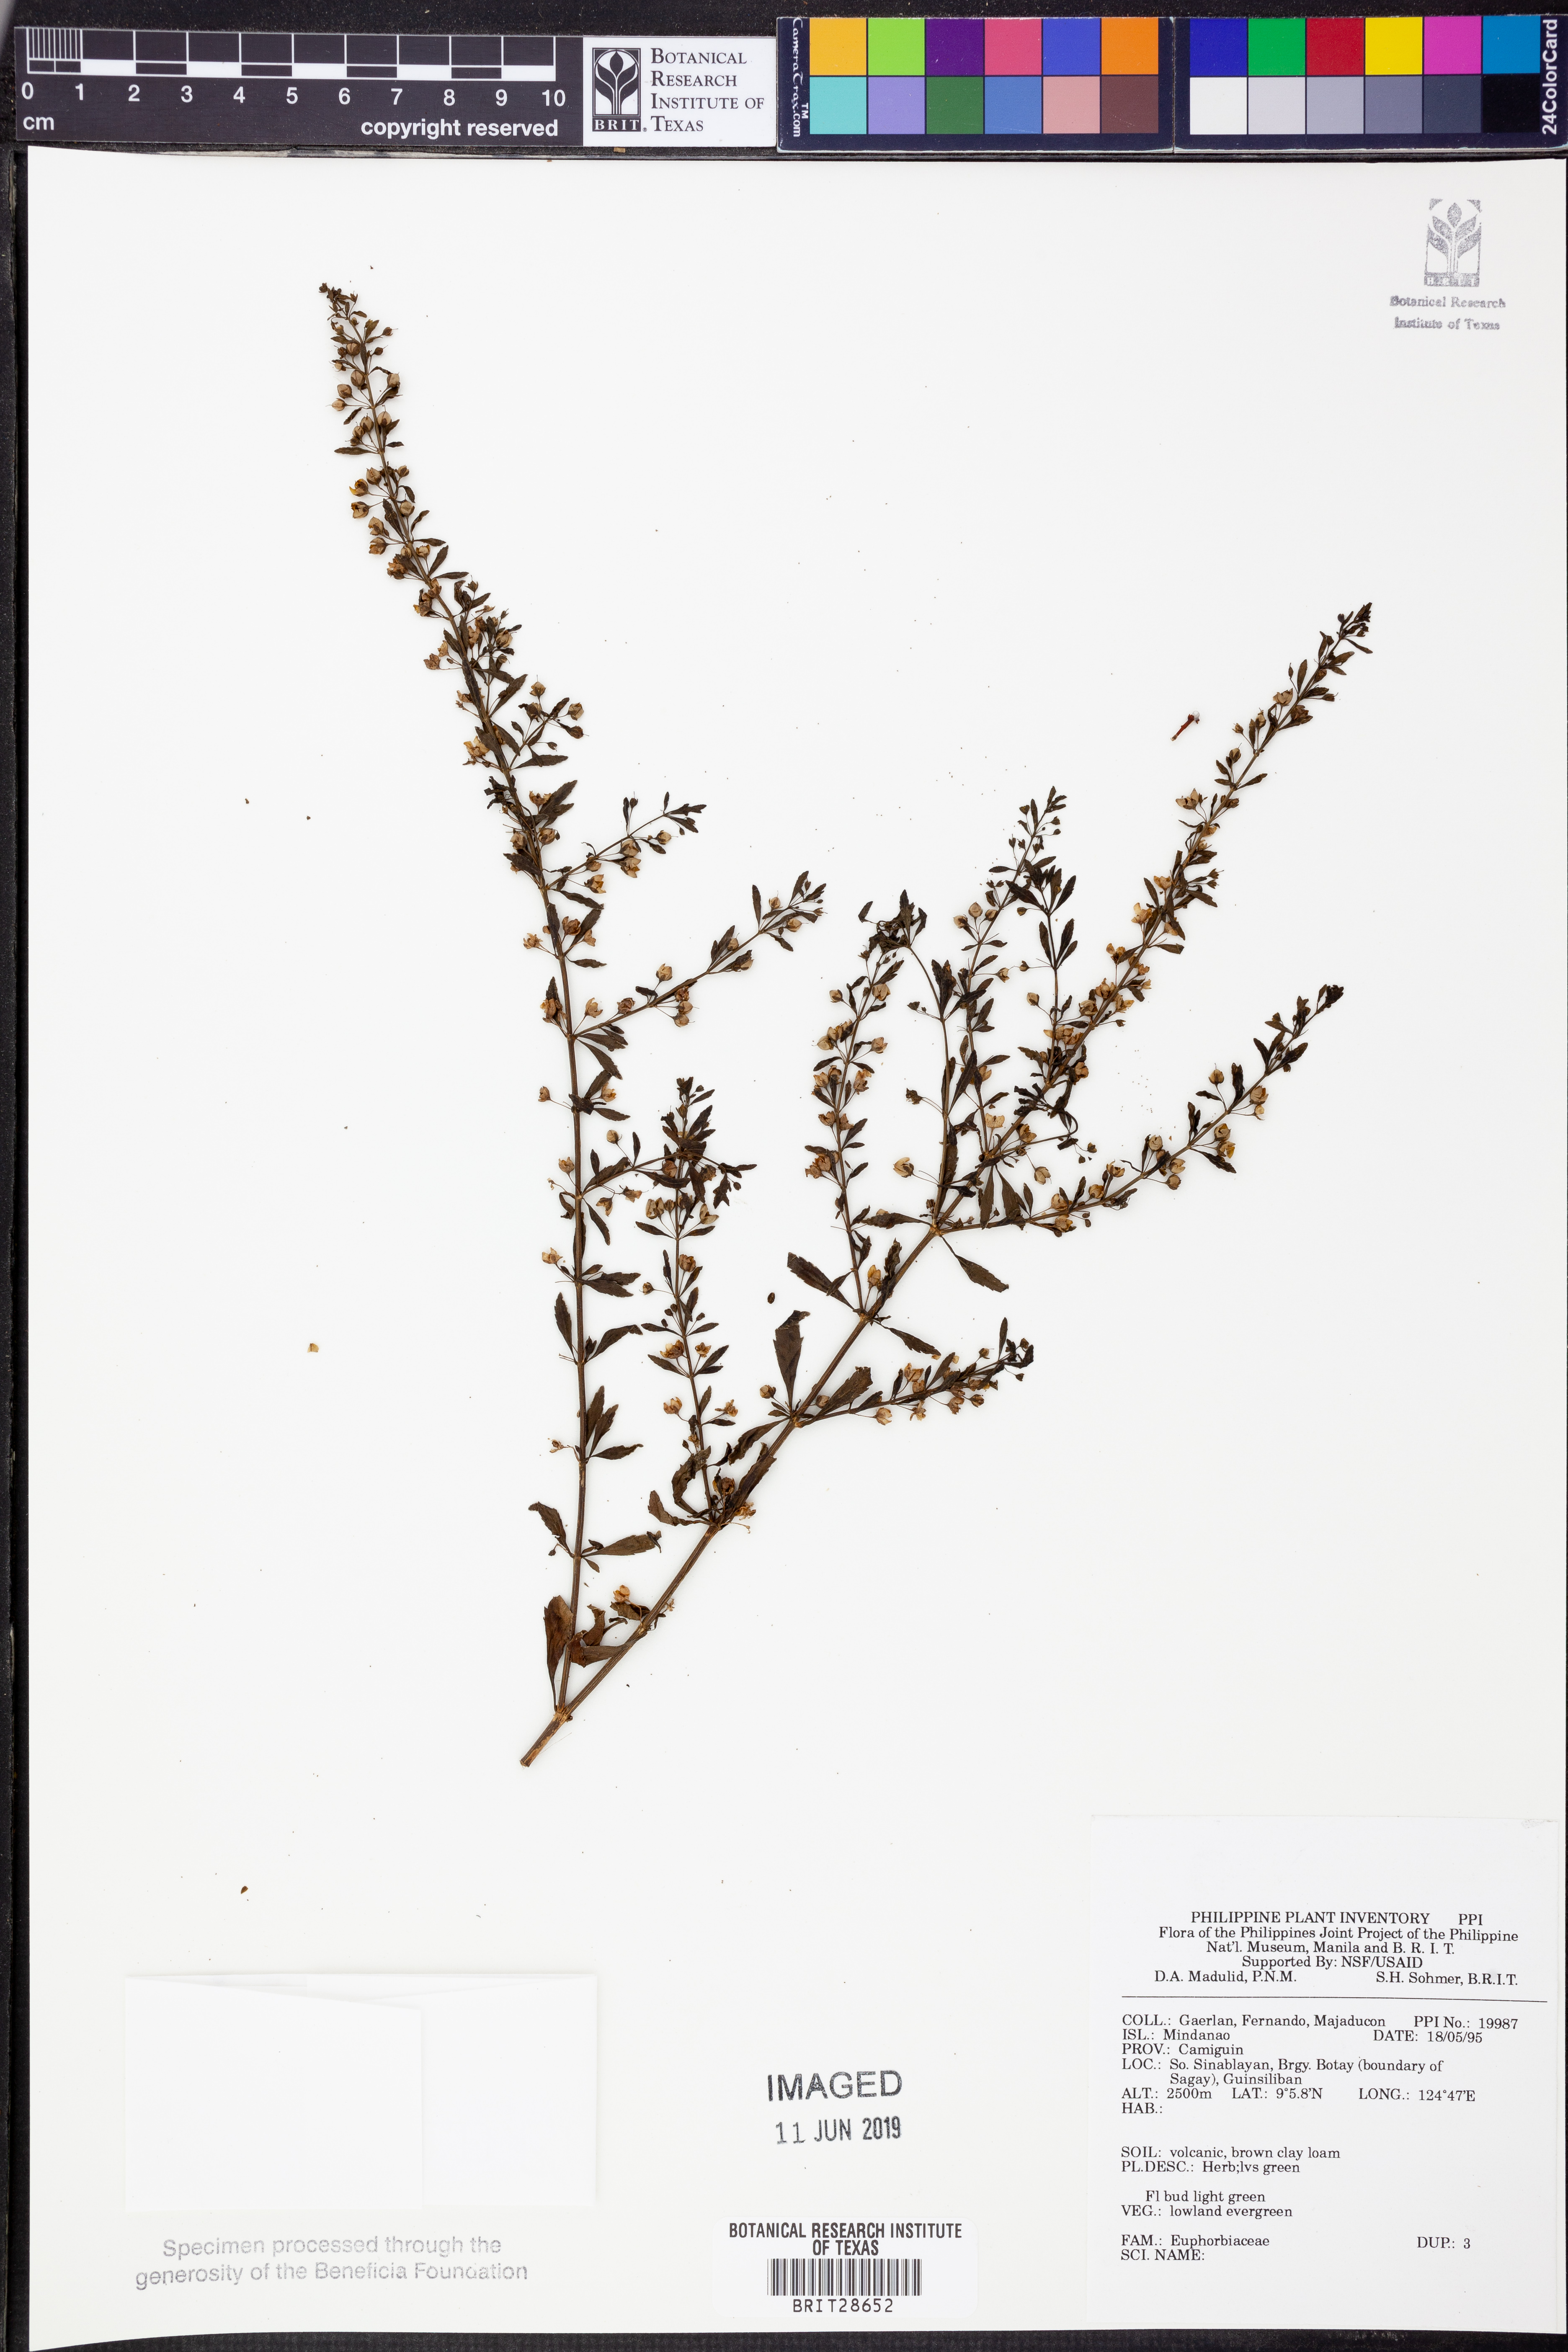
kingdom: Plantae
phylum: Tracheophyta
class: Magnoliopsida
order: Malpighiales
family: Euphorbiaceae
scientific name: Euphorbiaceae
